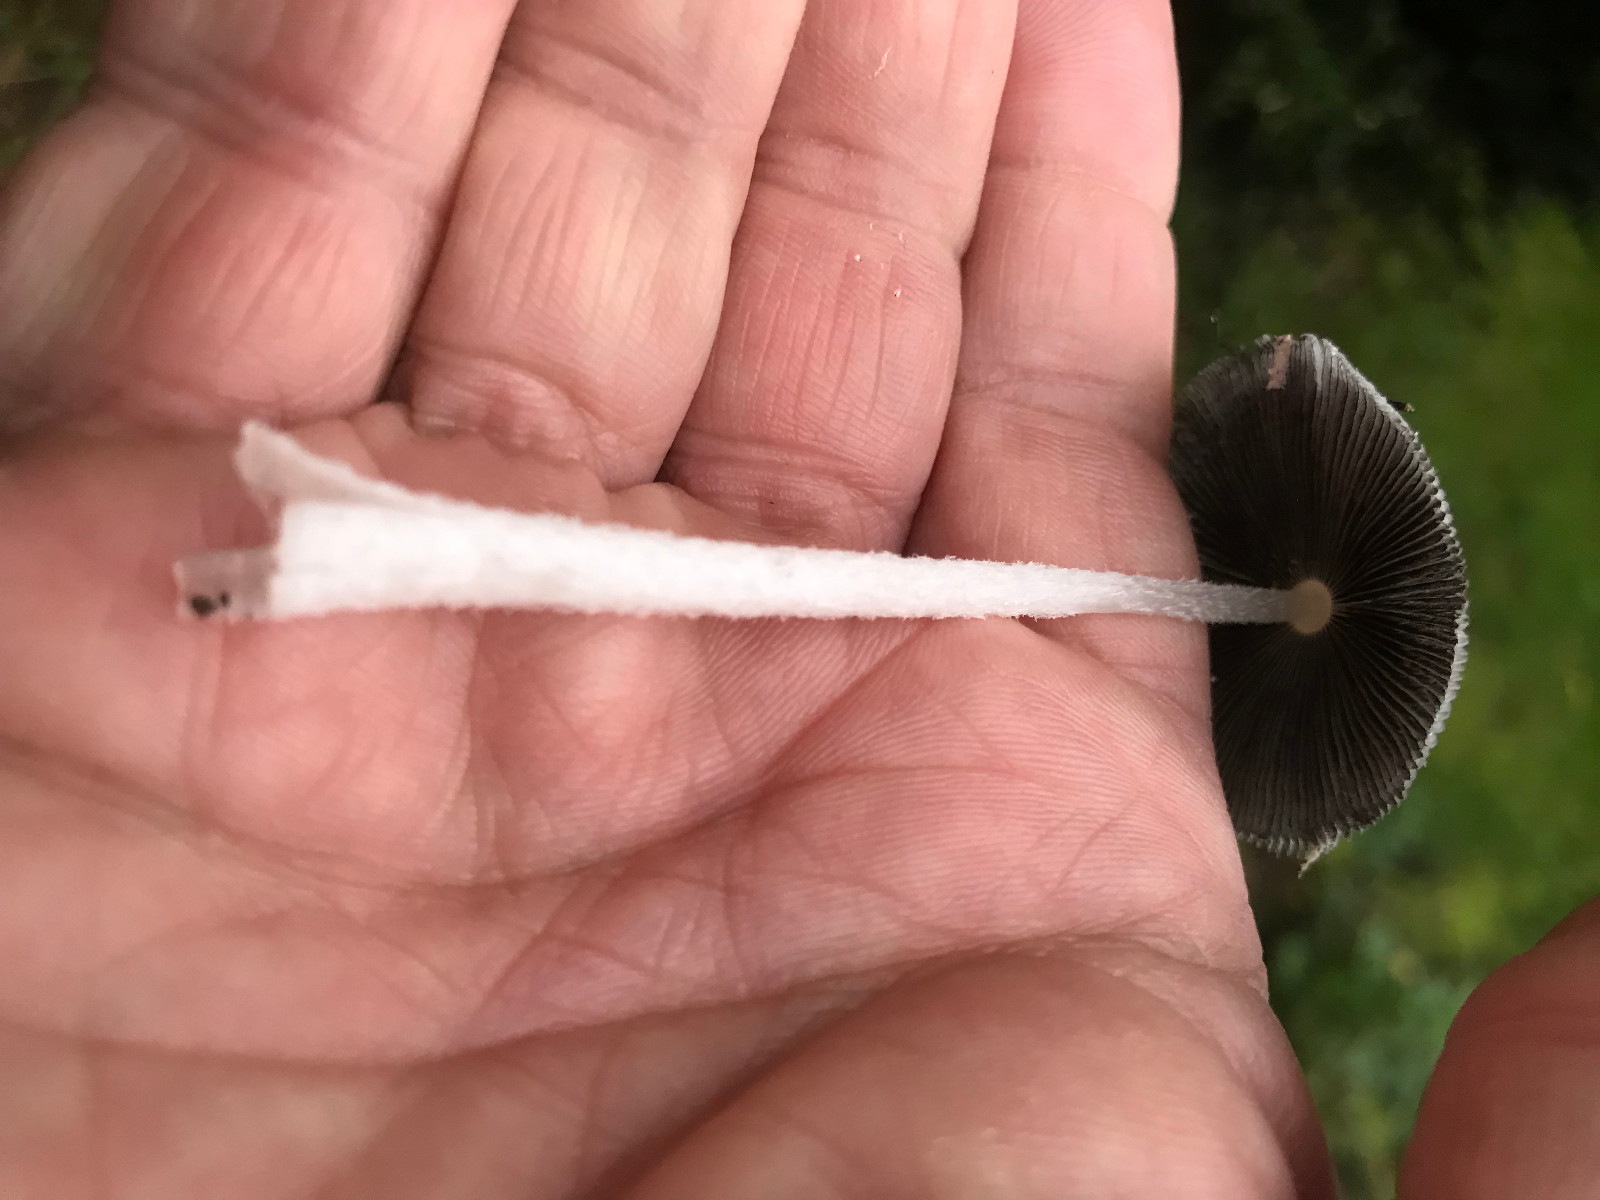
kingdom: Fungi
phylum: Basidiomycota
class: Agaricomycetes
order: Agaricales
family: Psathyrellaceae
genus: Coprinopsis
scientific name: Coprinopsis lagopus
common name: dunstokket blækhat
